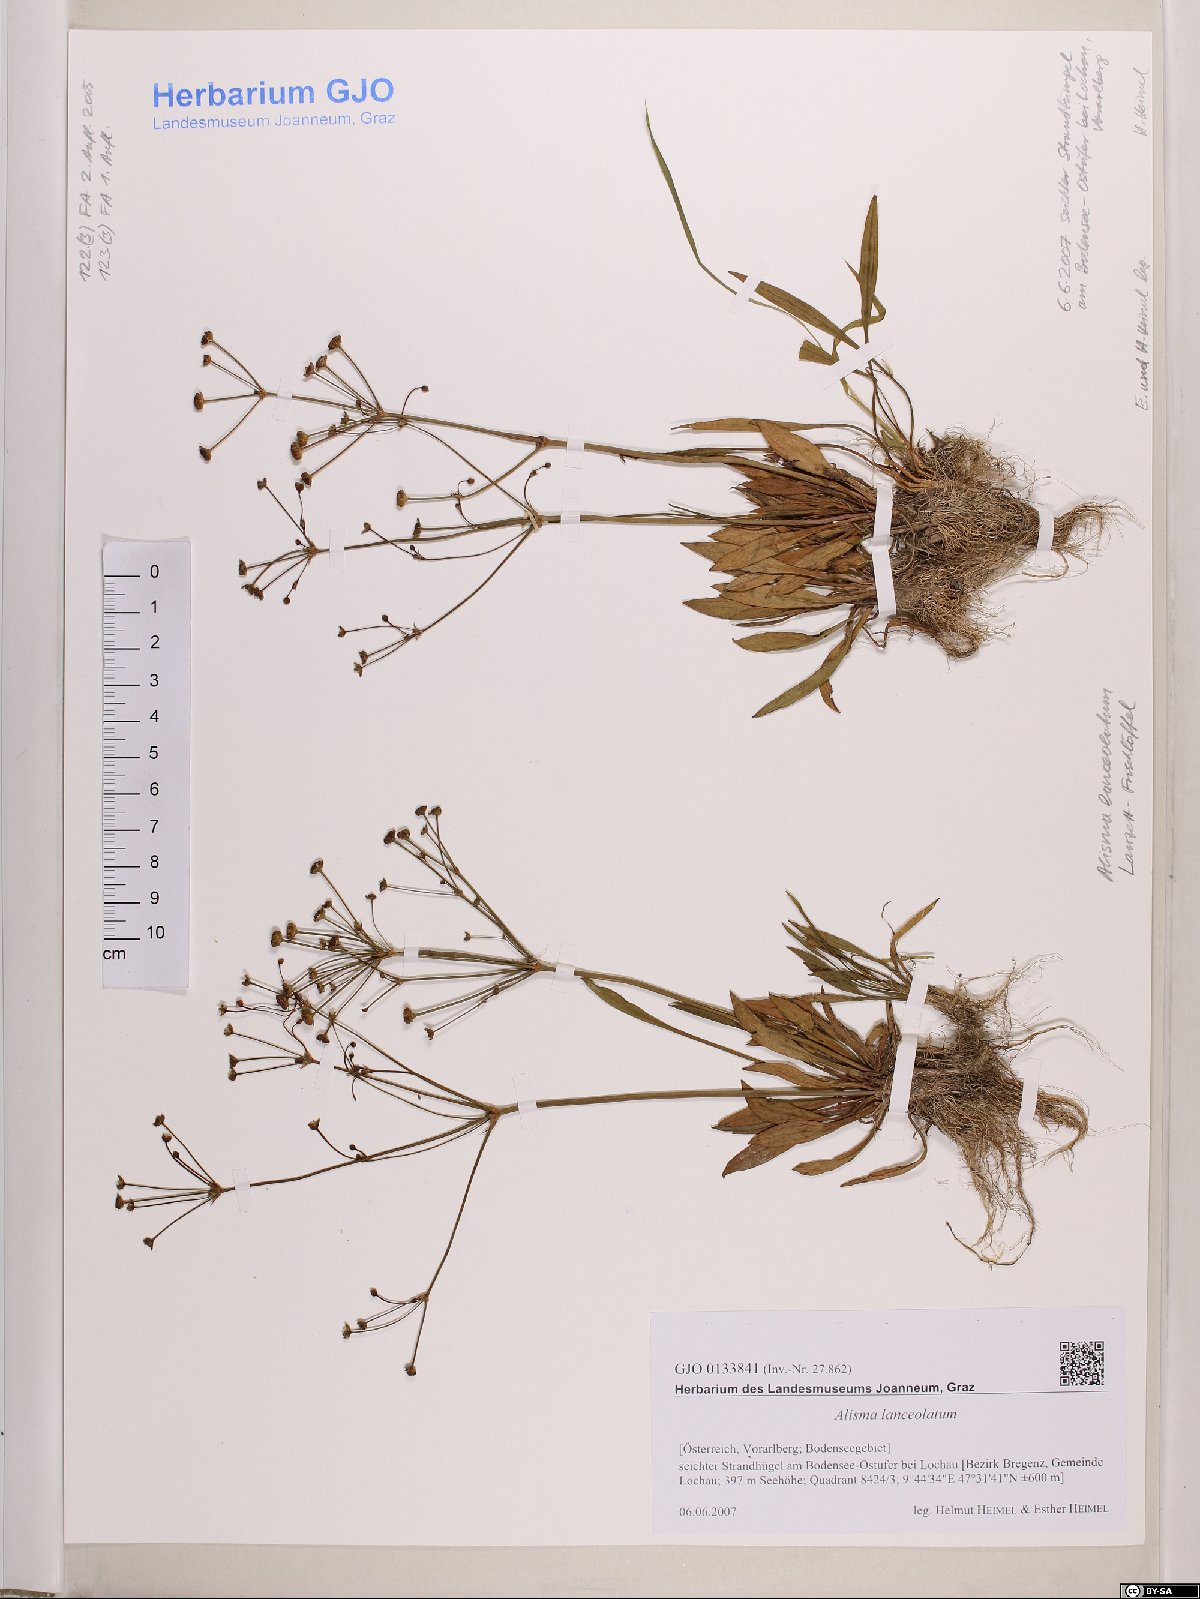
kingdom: Plantae
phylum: Tracheophyta
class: Liliopsida
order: Alismatales
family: Alismataceae
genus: Alisma
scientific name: Alisma lanceolatum
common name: Narrow-leaved water-plantain
